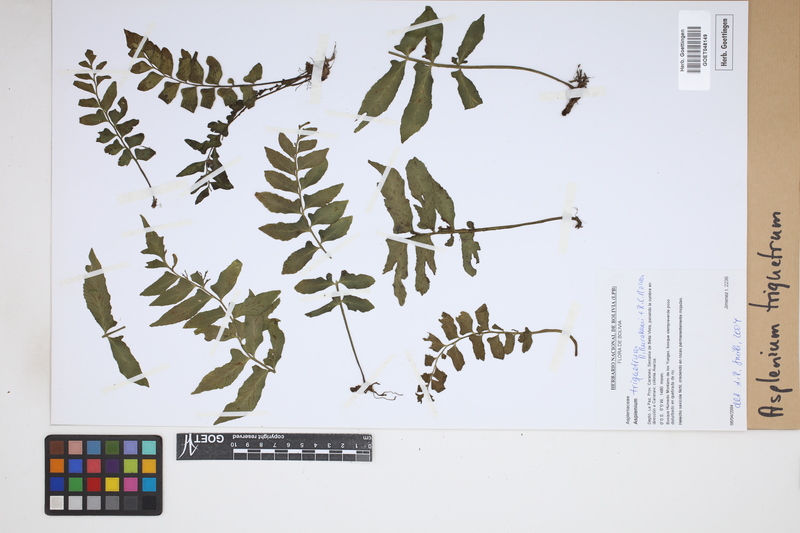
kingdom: Plantae
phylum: Tracheophyta
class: Polypodiopsida
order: Polypodiales
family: Aspleniaceae
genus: Hymenasplenium
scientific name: Hymenasplenium triquetrum
